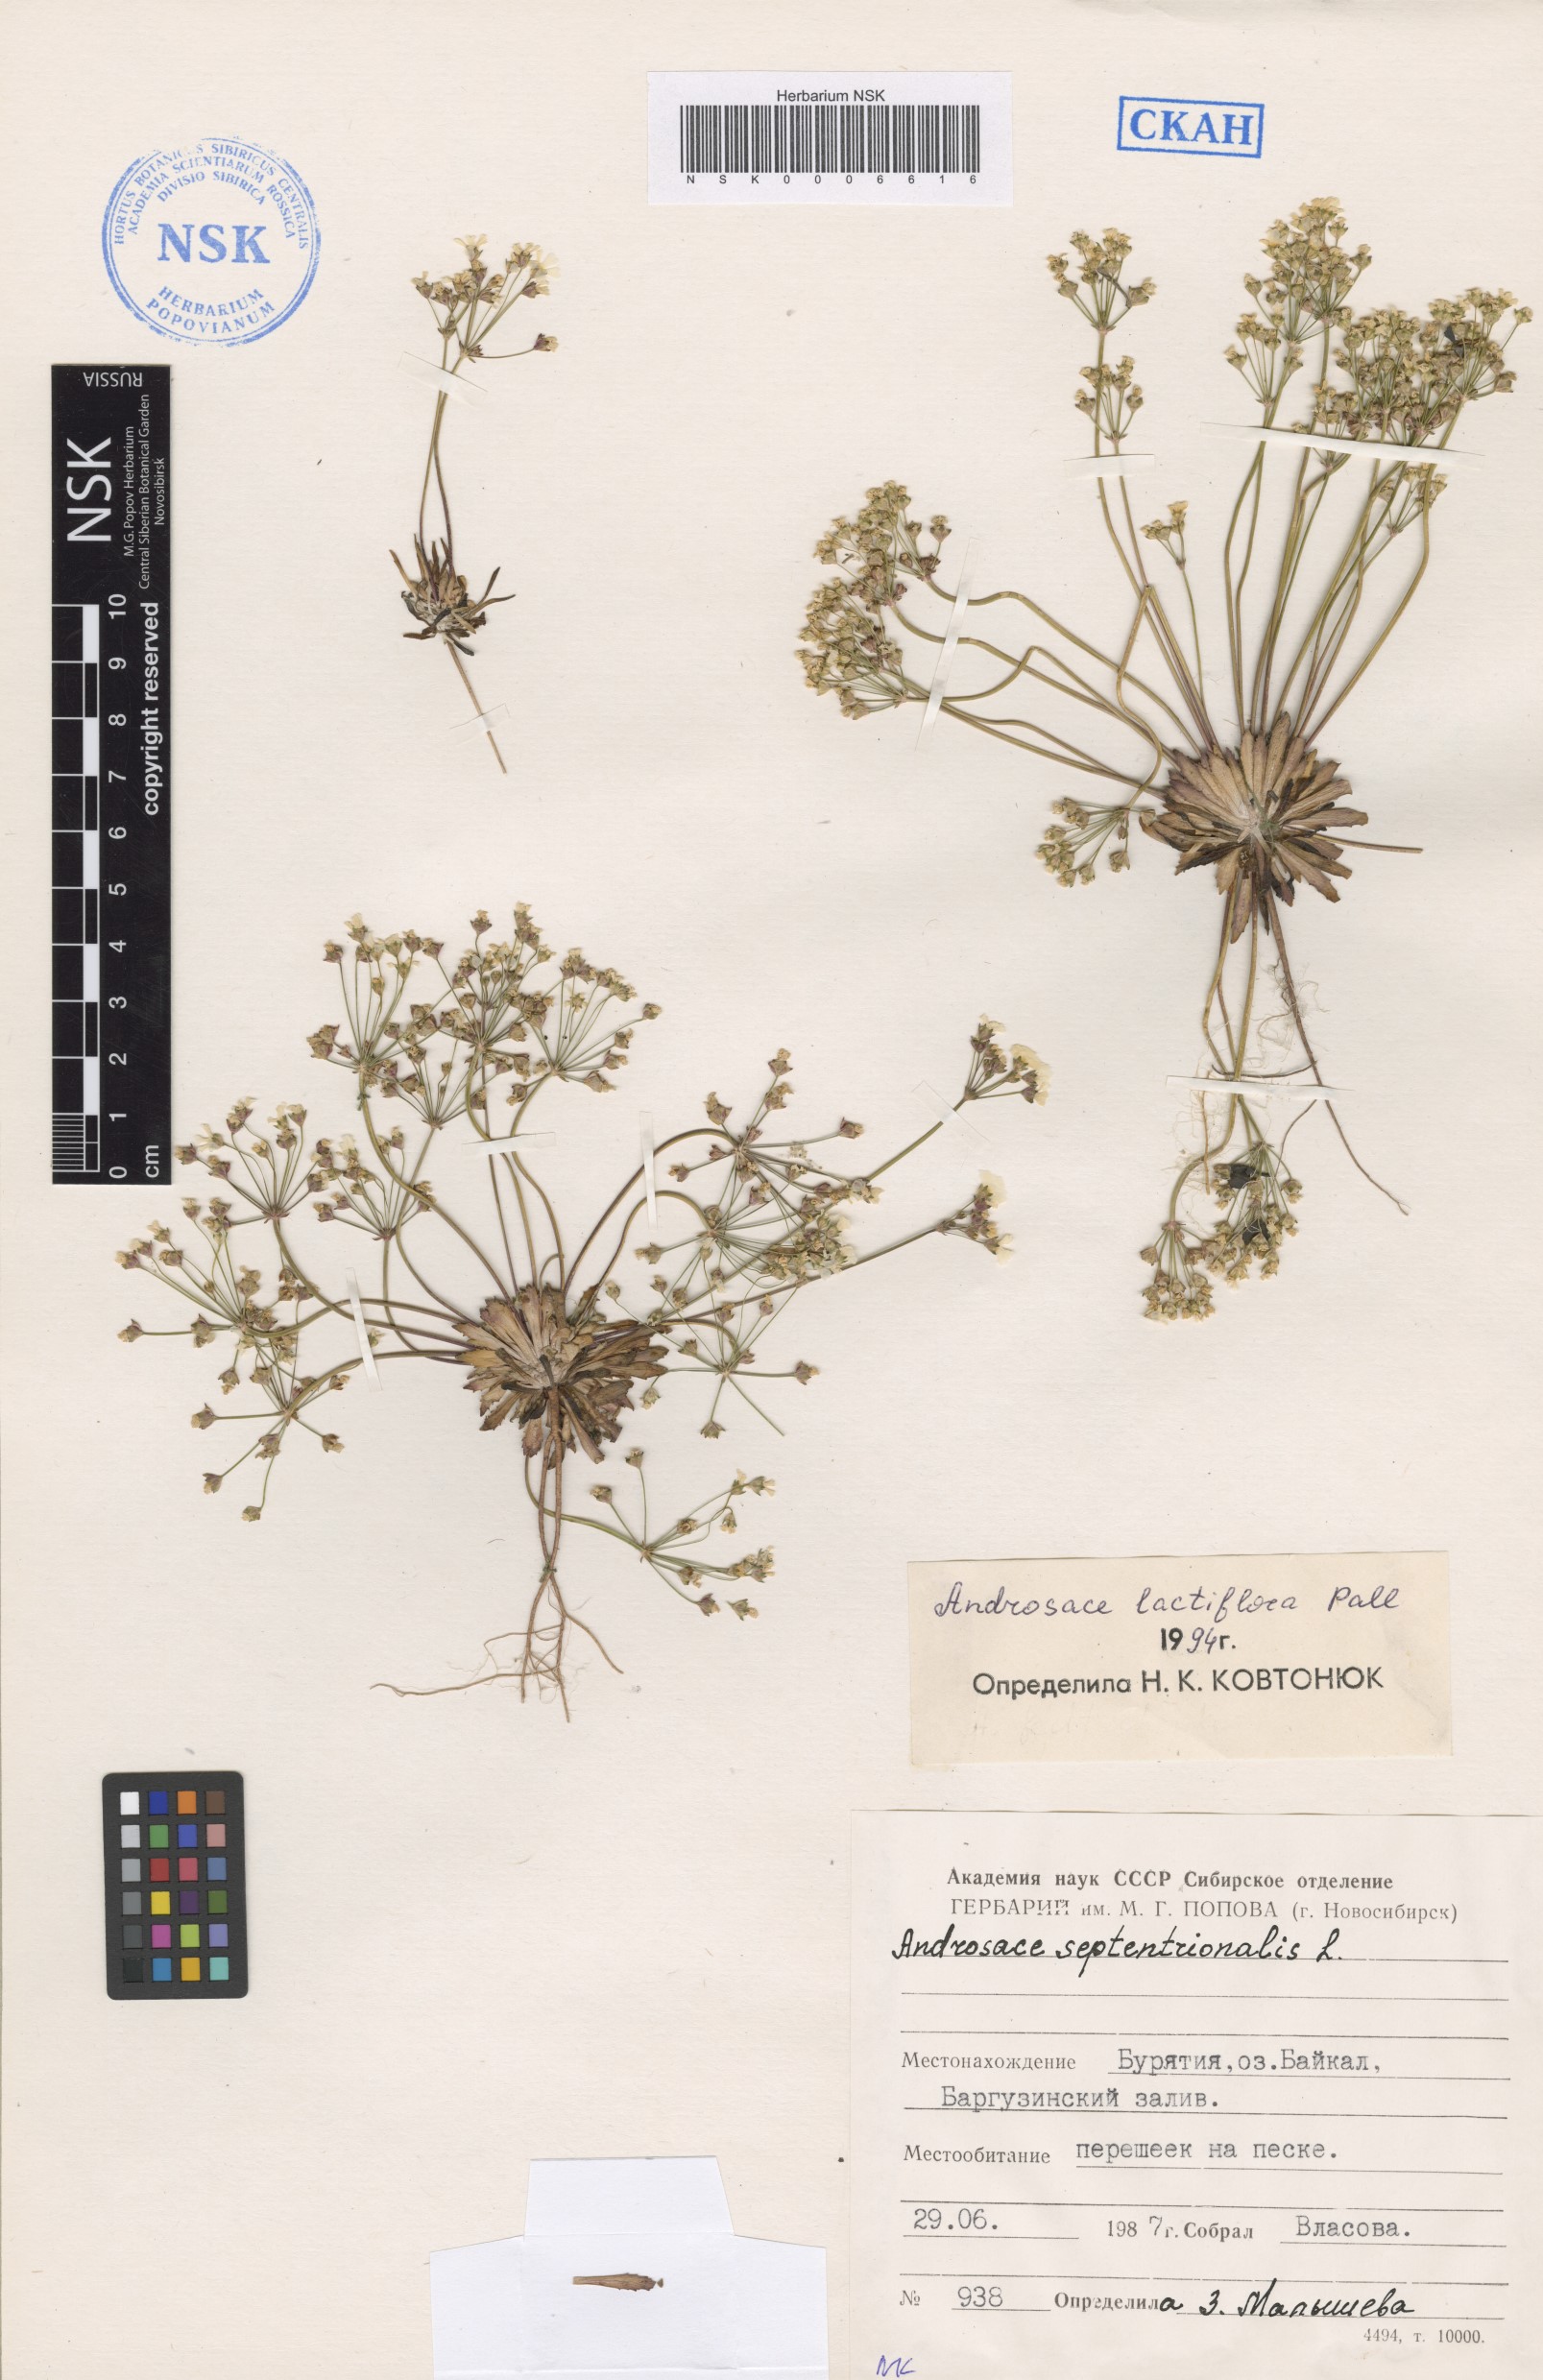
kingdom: Plantae
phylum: Tracheophyta
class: Magnoliopsida
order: Ericales
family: Primulaceae
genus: Androsace
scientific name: Androsace lactiflora
